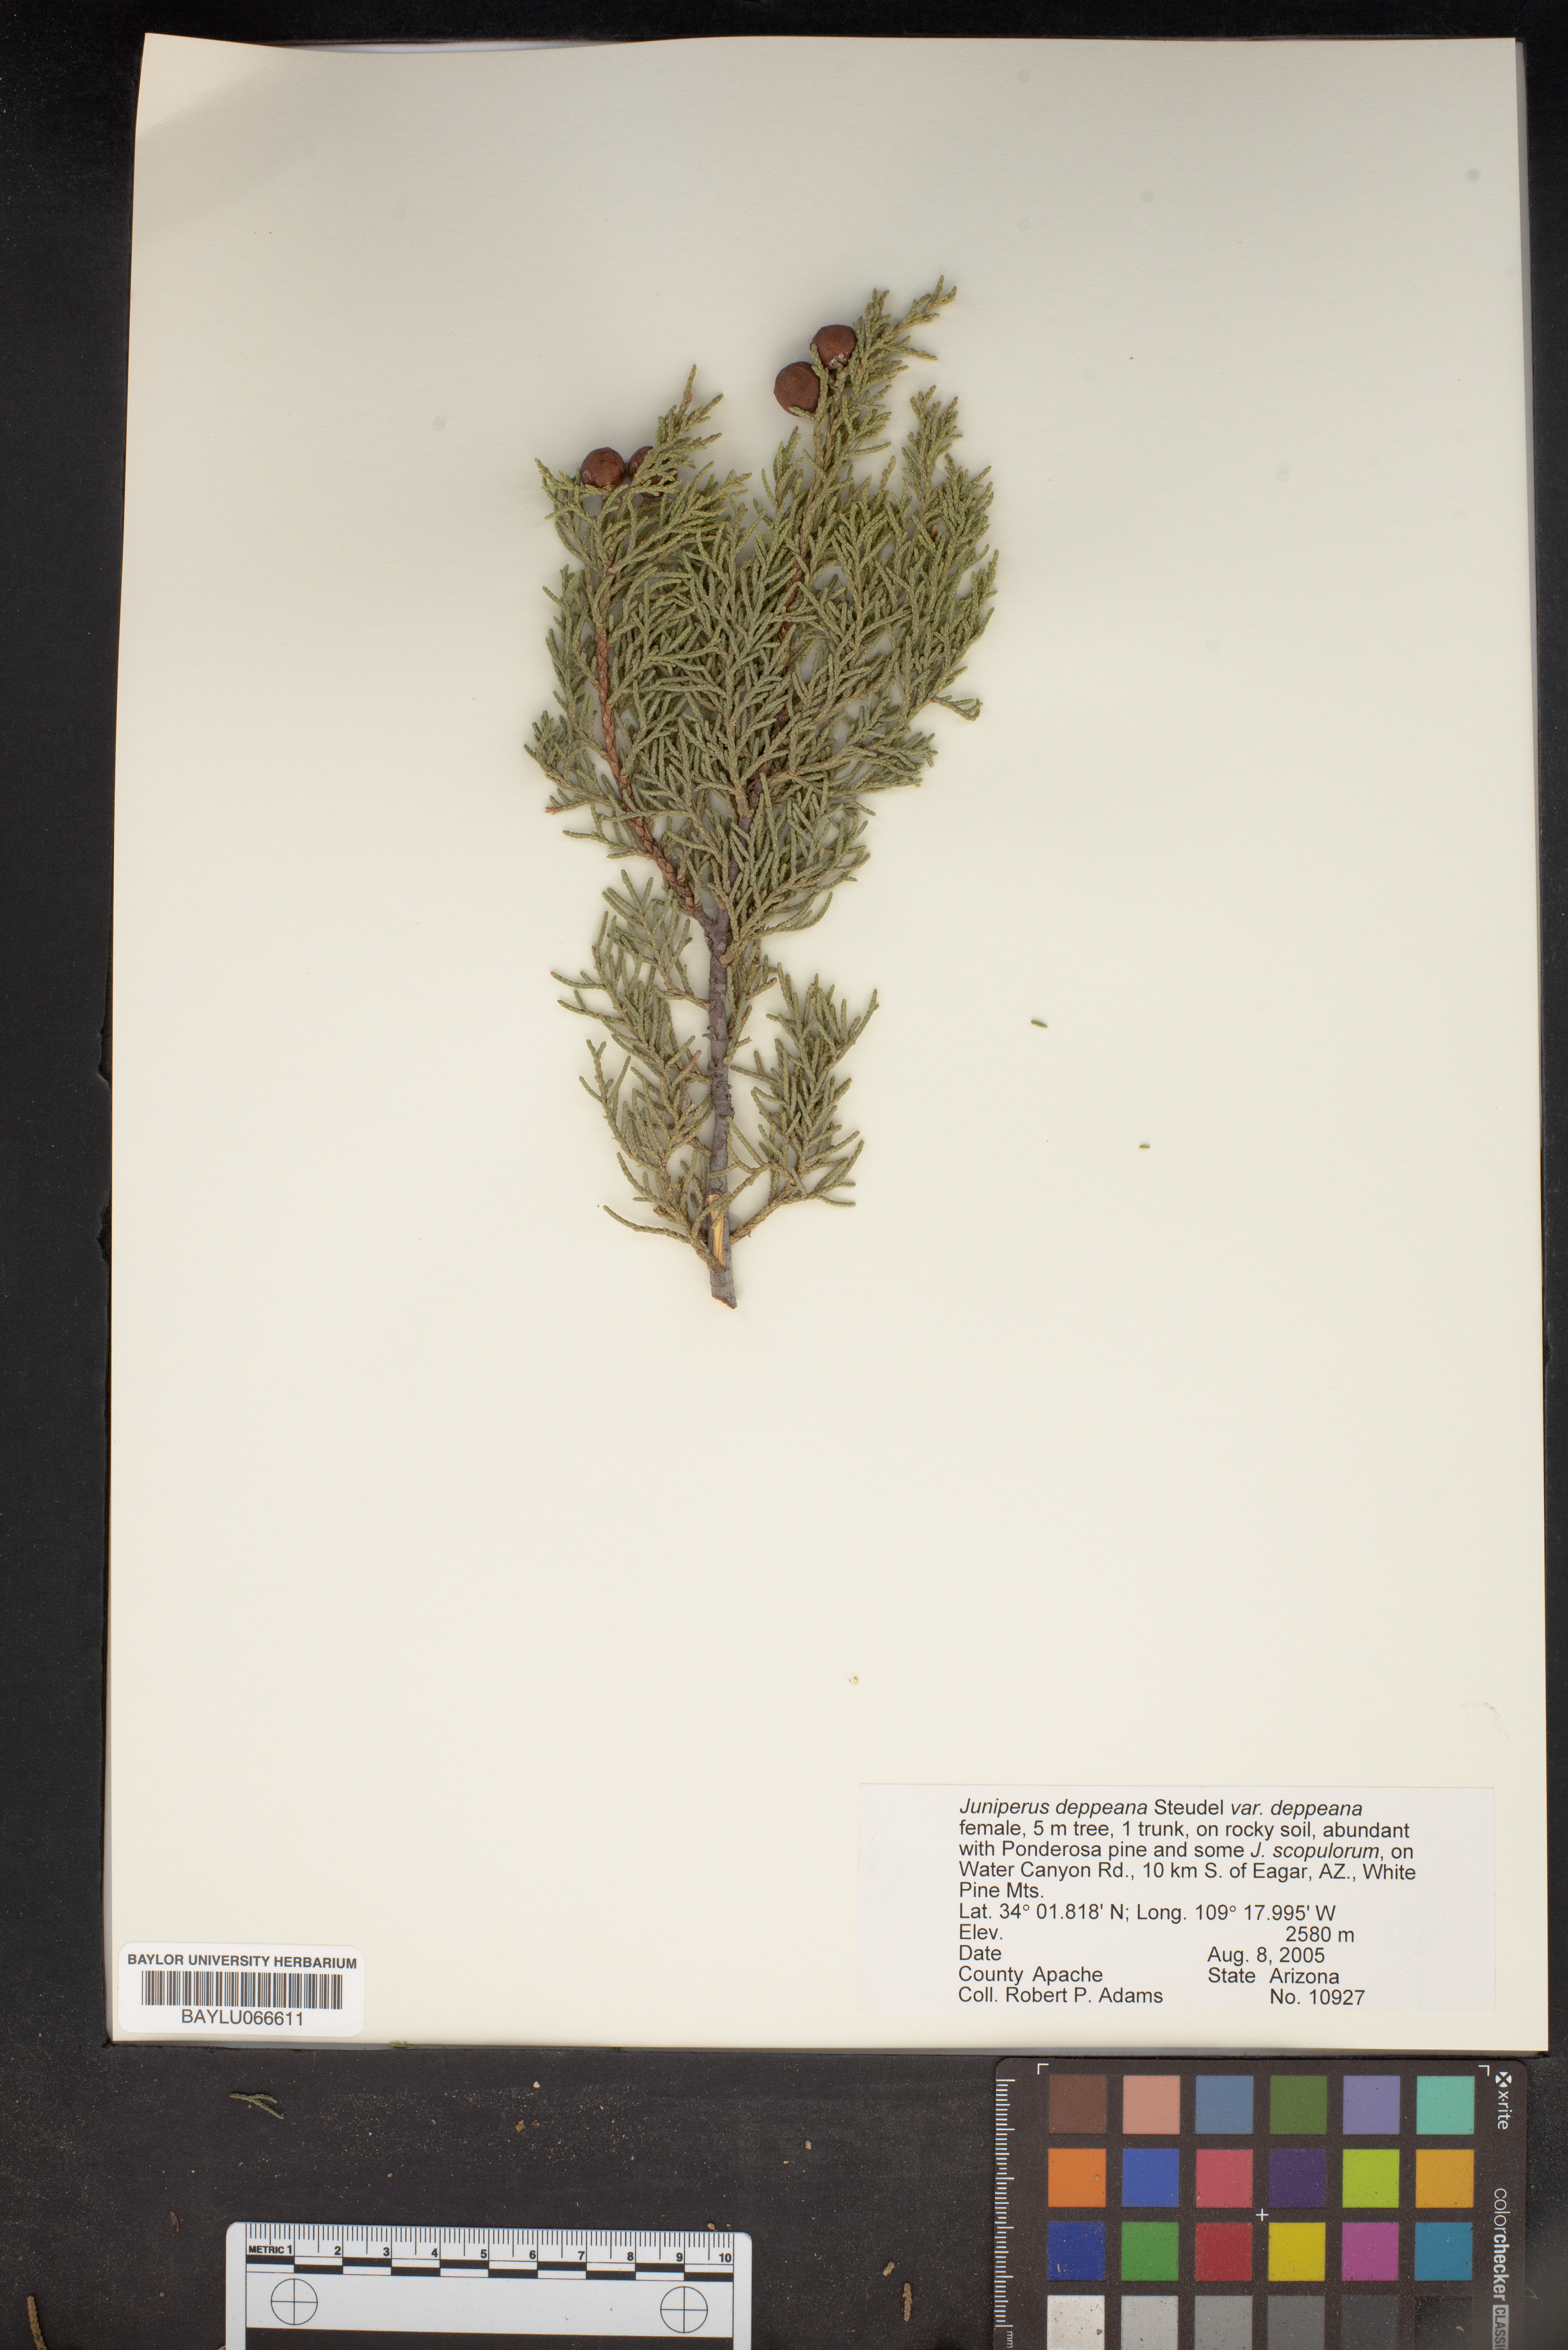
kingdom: Plantae
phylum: Tracheophyta
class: Pinopsida
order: Pinales
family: Cupressaceae
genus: Juniperus
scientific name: Juniperus deppeana
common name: Alligator juniper
